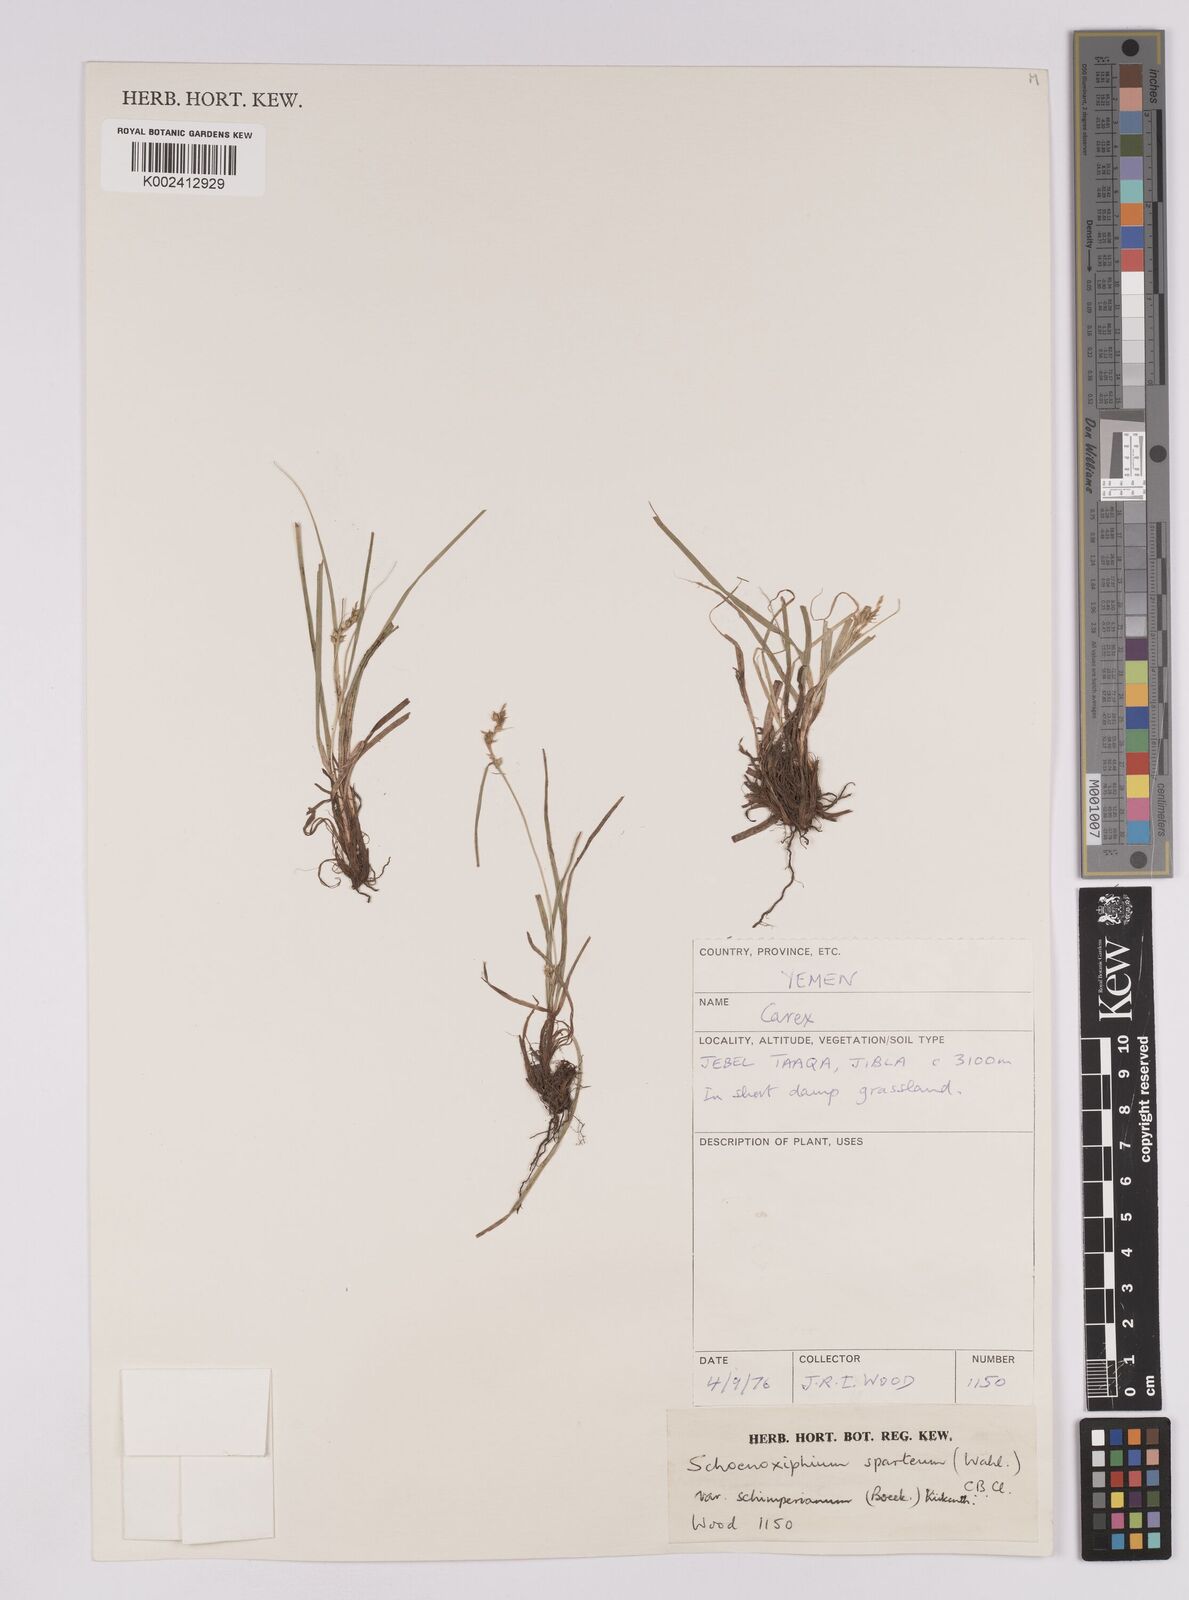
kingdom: Plantae
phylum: Tracheophyta
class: Liliopsida
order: Poales
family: Cyperaceae
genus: Carex
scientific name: Carex spartea
